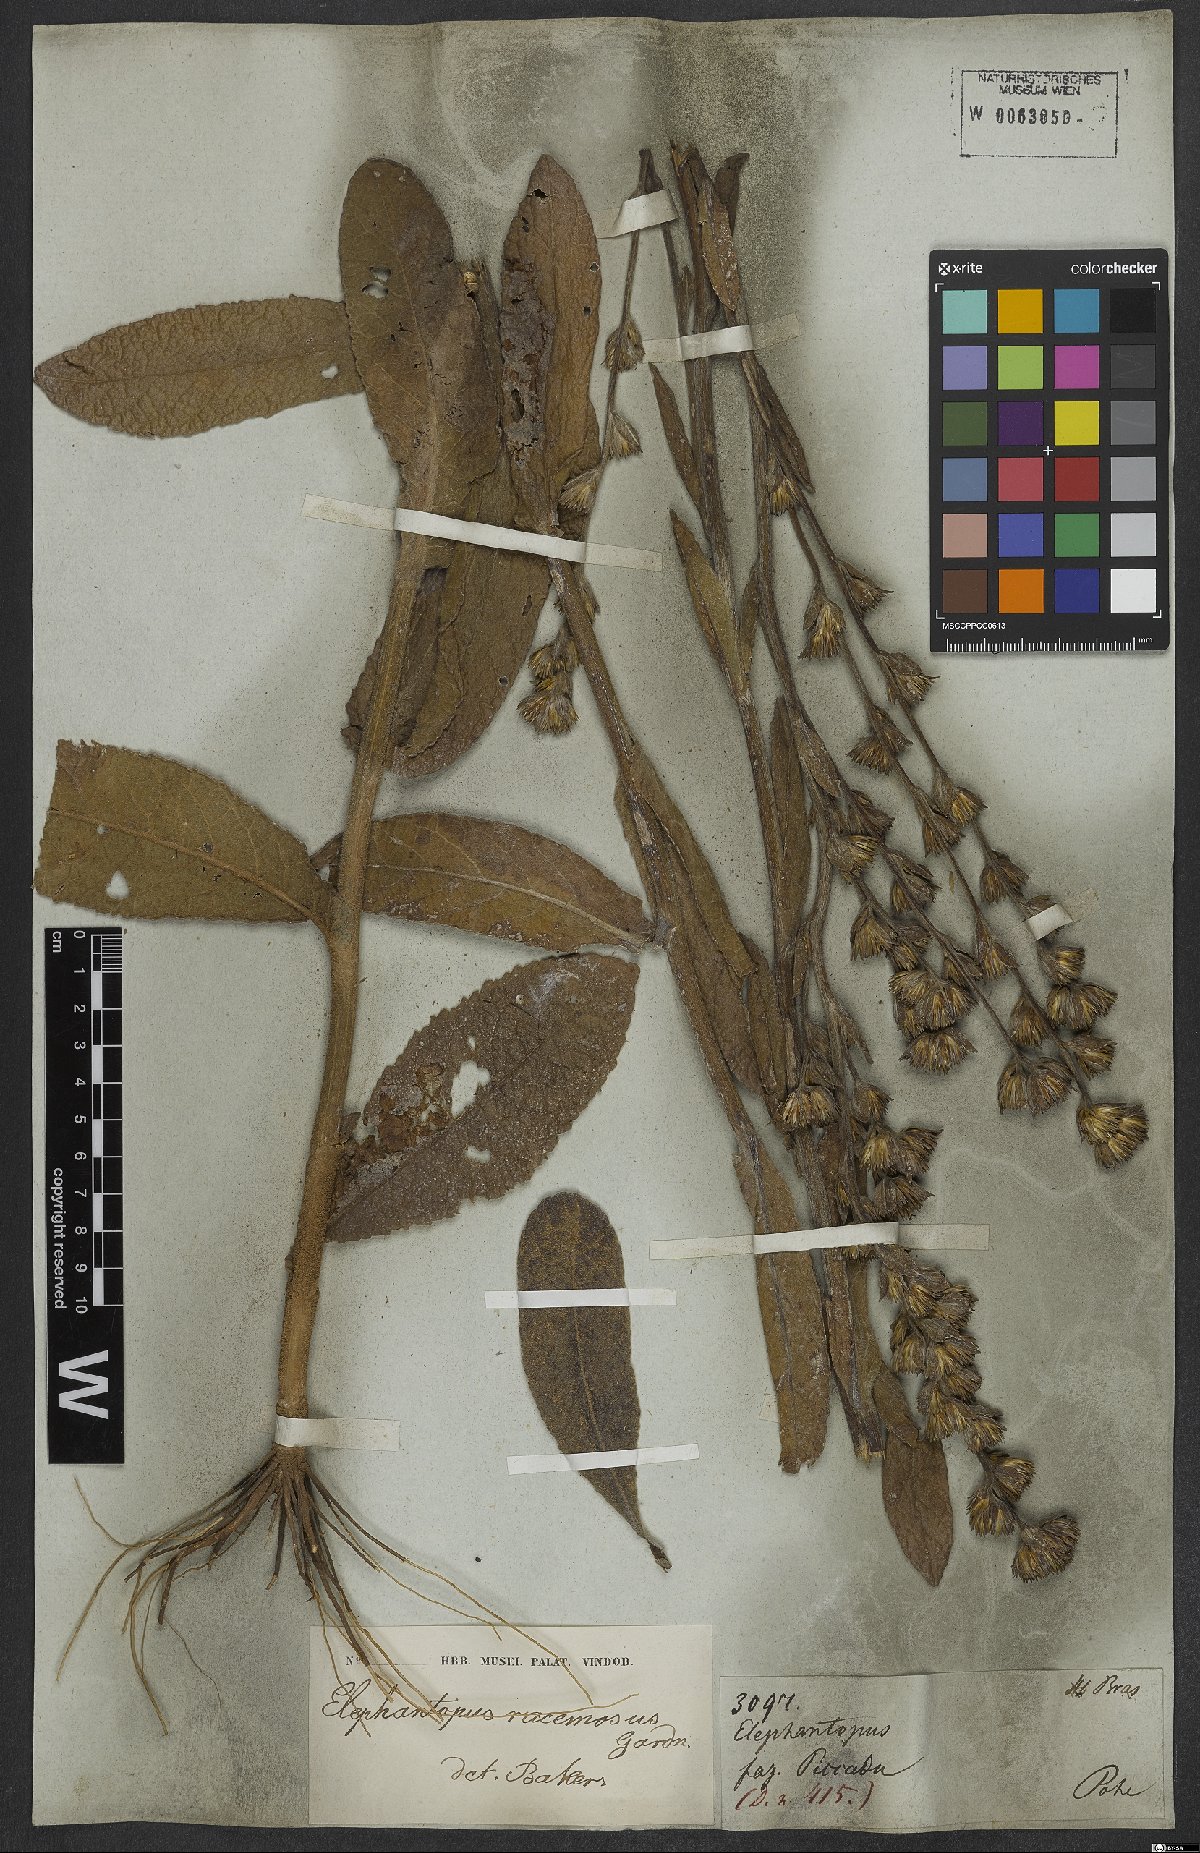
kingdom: Plantae
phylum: Tracheophyta
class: Magnoliopsida
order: Asterales
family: Asteraceae
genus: Elephantopus
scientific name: Elephantopus racemosus
